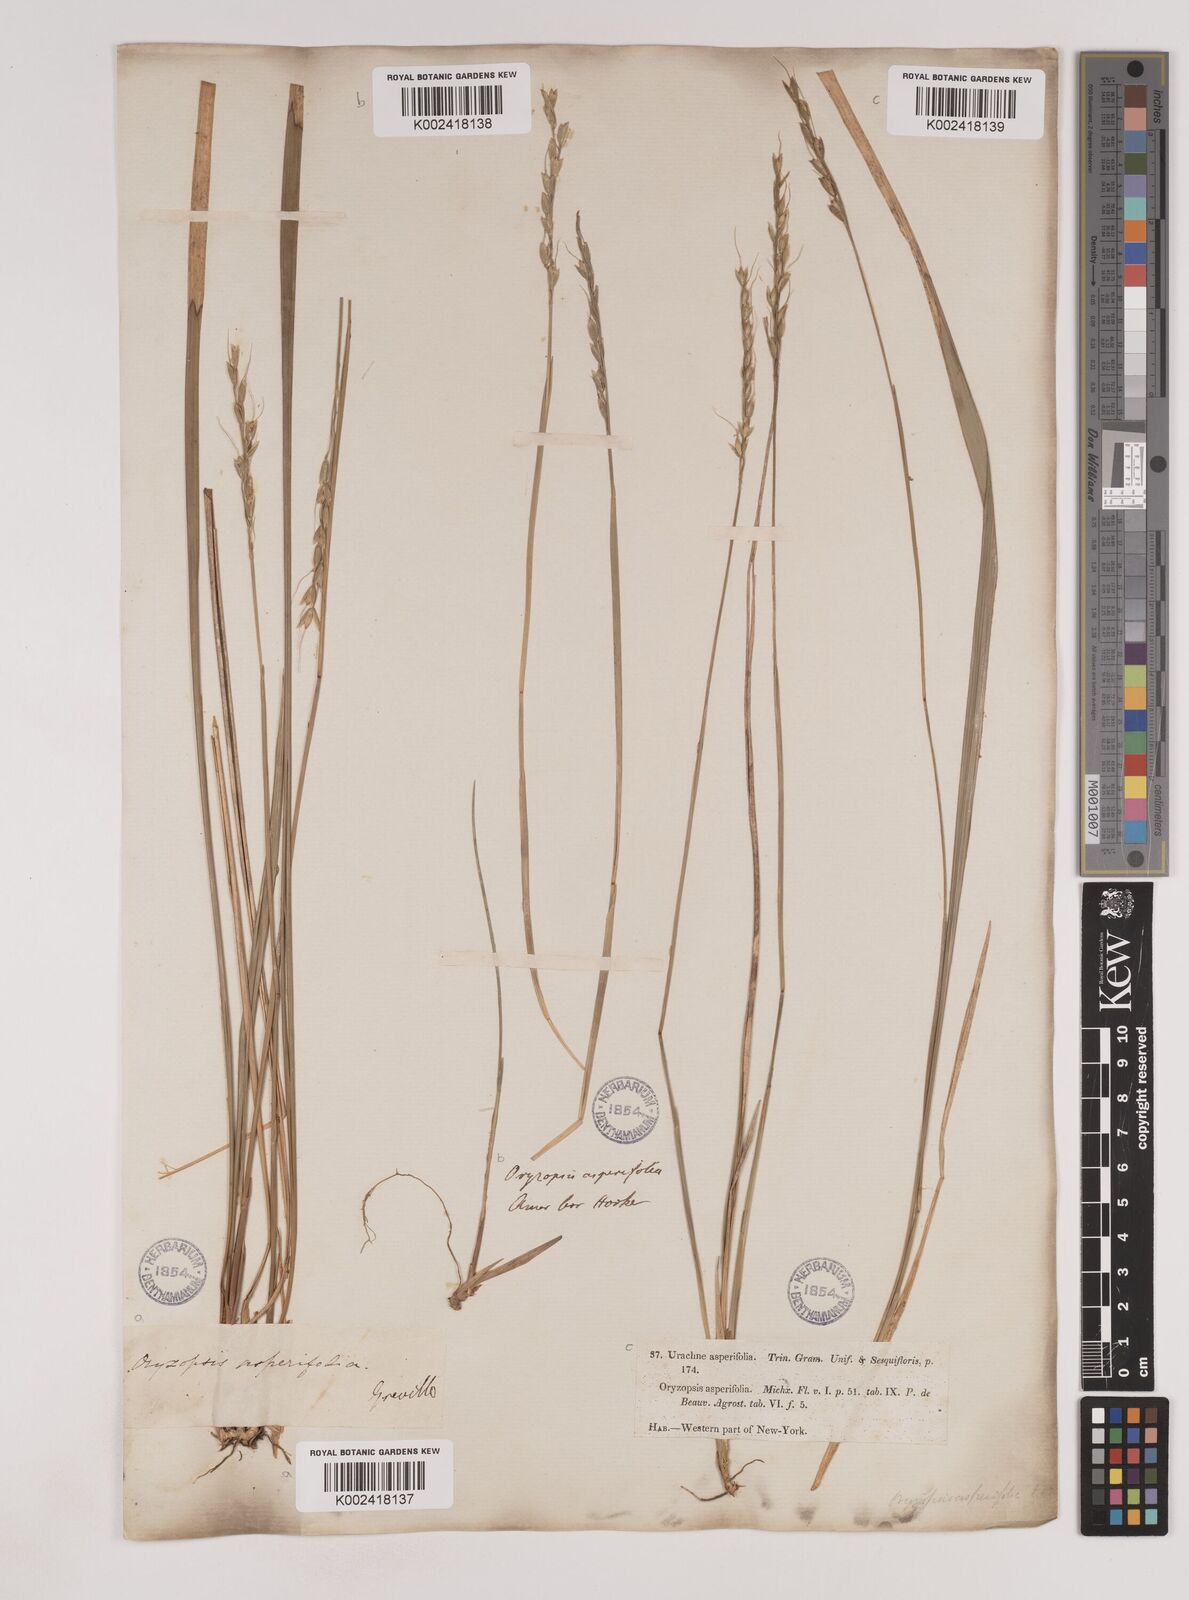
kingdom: Plantae
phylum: Tracheophyta
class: Liliopsida
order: Poales
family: Poaceae
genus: Oryzopsis
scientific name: Oryzopsis asperifolia
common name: Rough-leaved mountain rice
